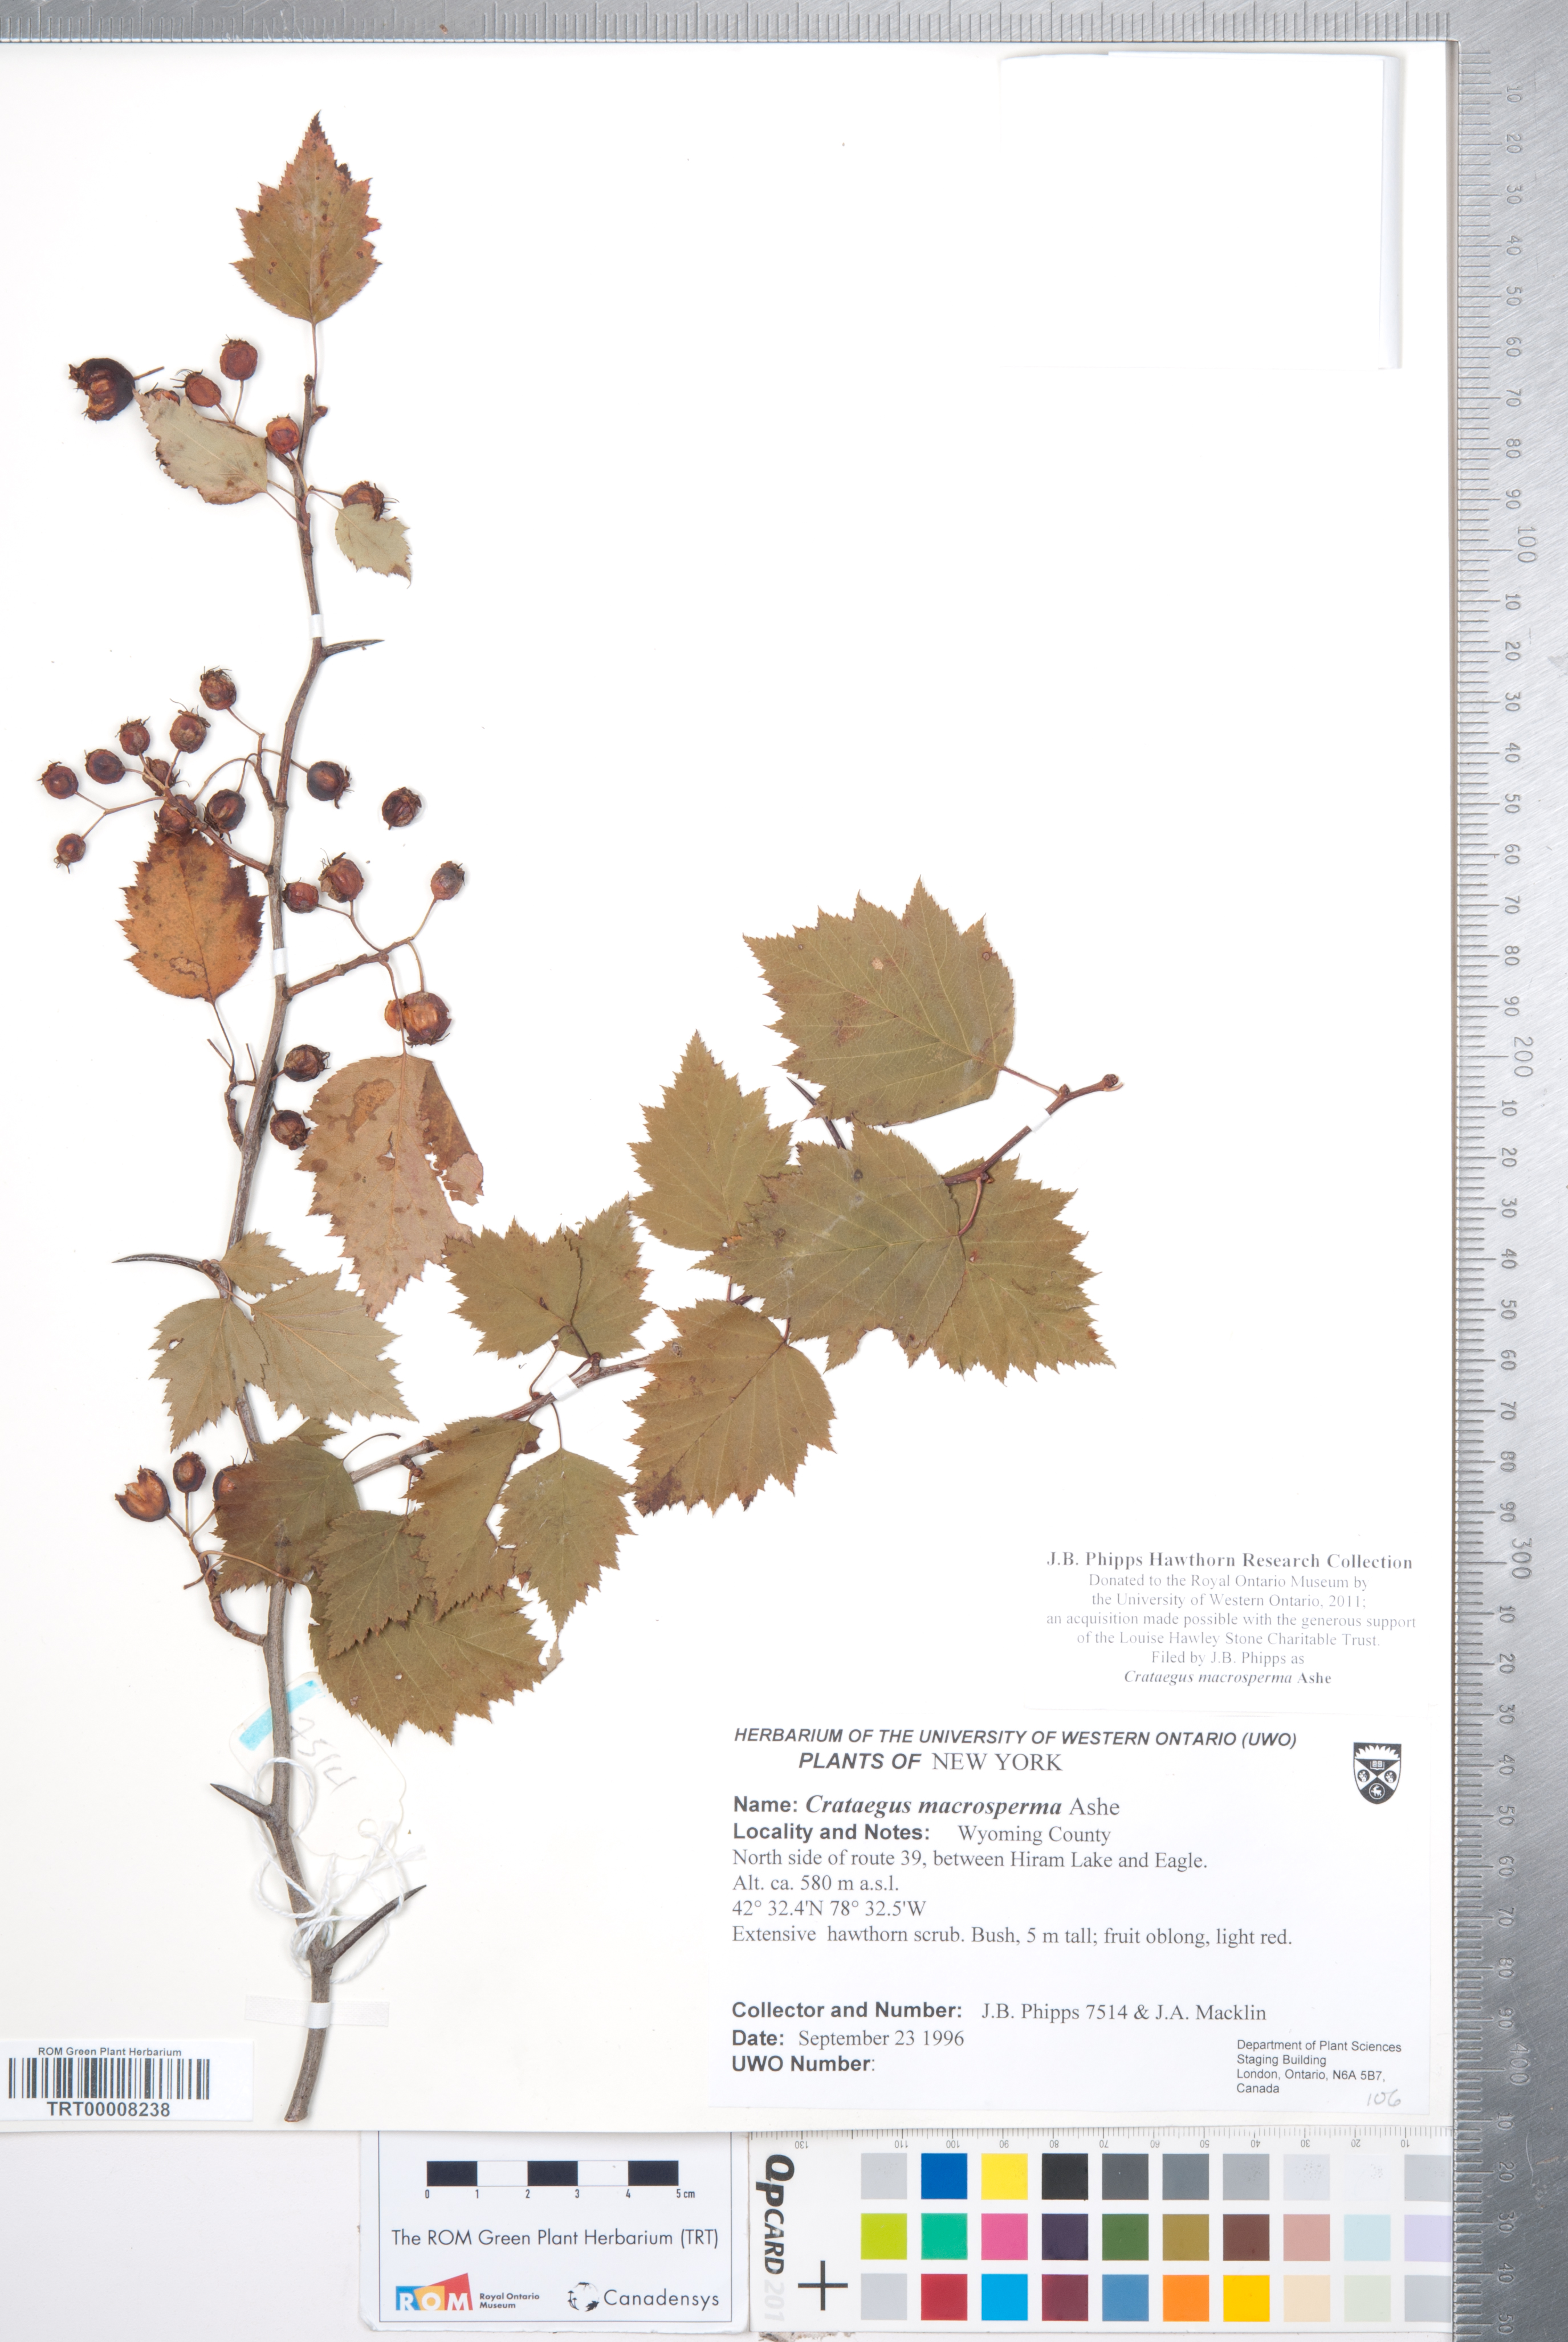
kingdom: Plantae
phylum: Tracheophyta
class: Magnoliopsida
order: Rosales
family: Rosaceae
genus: Crataegus
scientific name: Crataegus macrosperma
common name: Variable hawthorn
